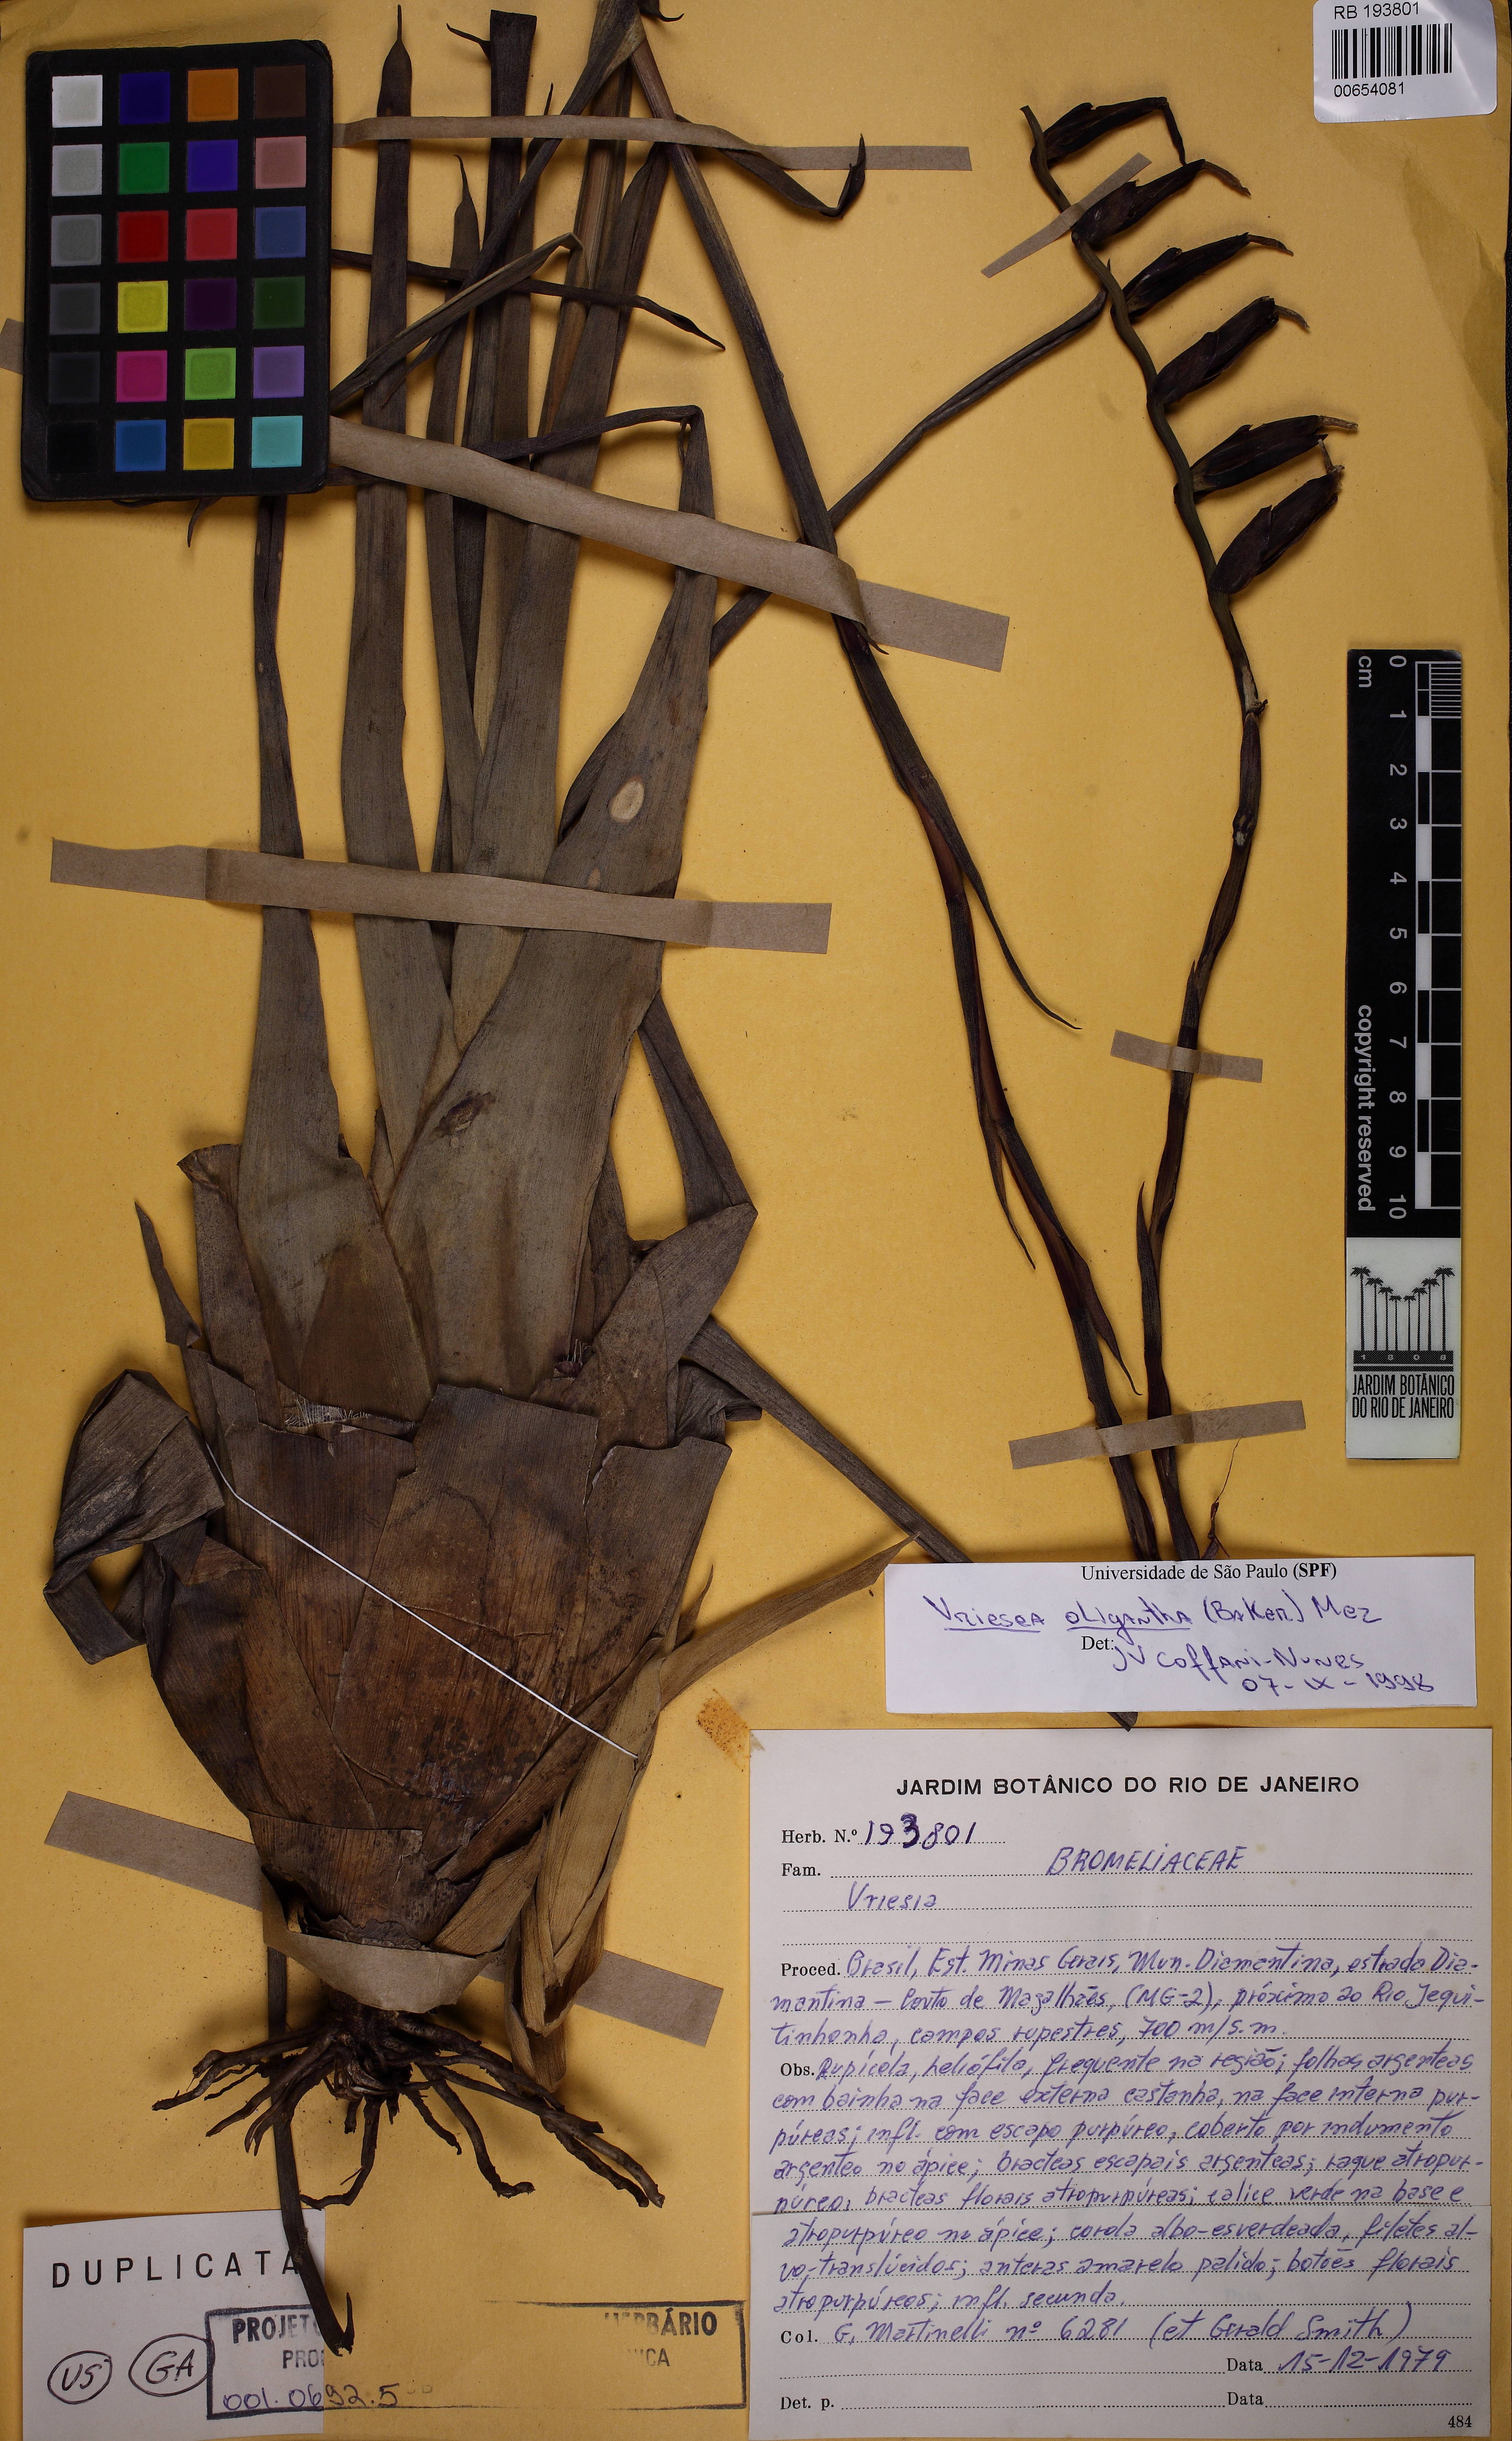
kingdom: Plantae
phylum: Tracheophyta
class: Liliopsida
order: Poales
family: Bromeliaceae
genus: Vriesea
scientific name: Vriesea oligantha
